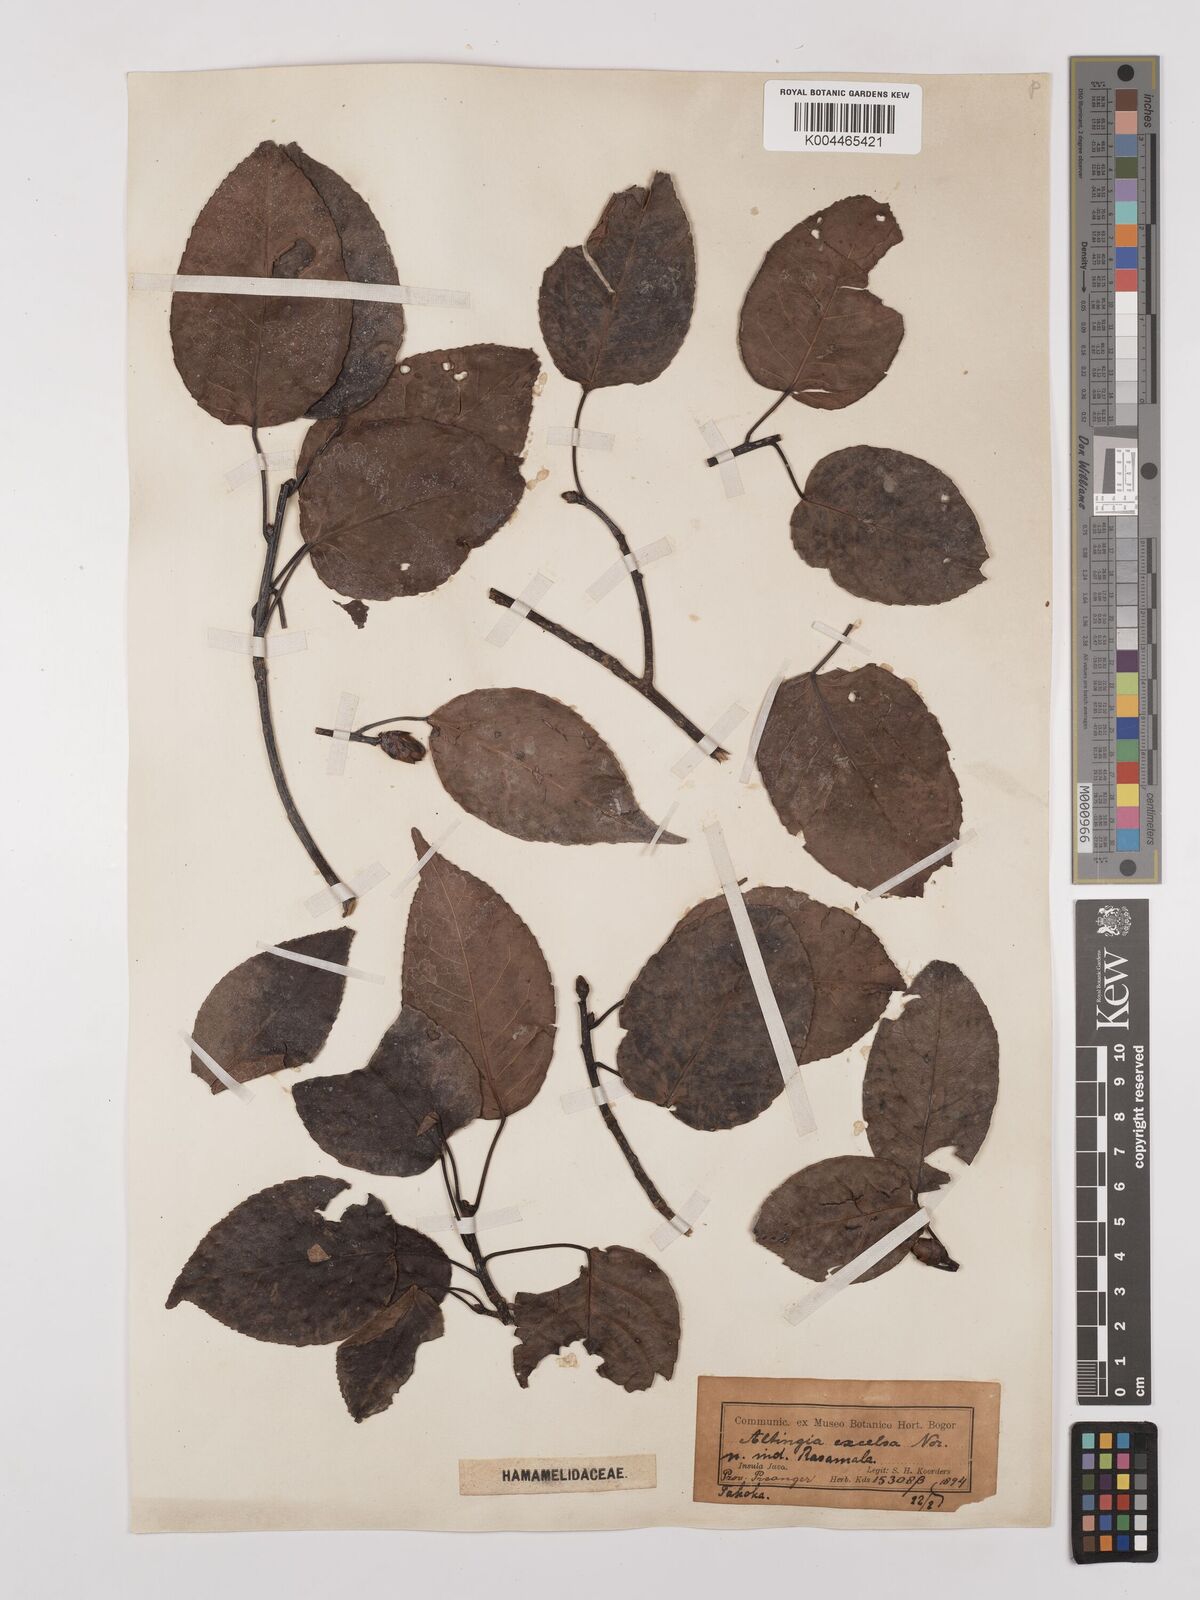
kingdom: Plantae
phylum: Tracheophyta
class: Magnoliopsida
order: Saxifragales
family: Altingiaceae
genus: Liquidambar
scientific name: Liquidambar excelsa
